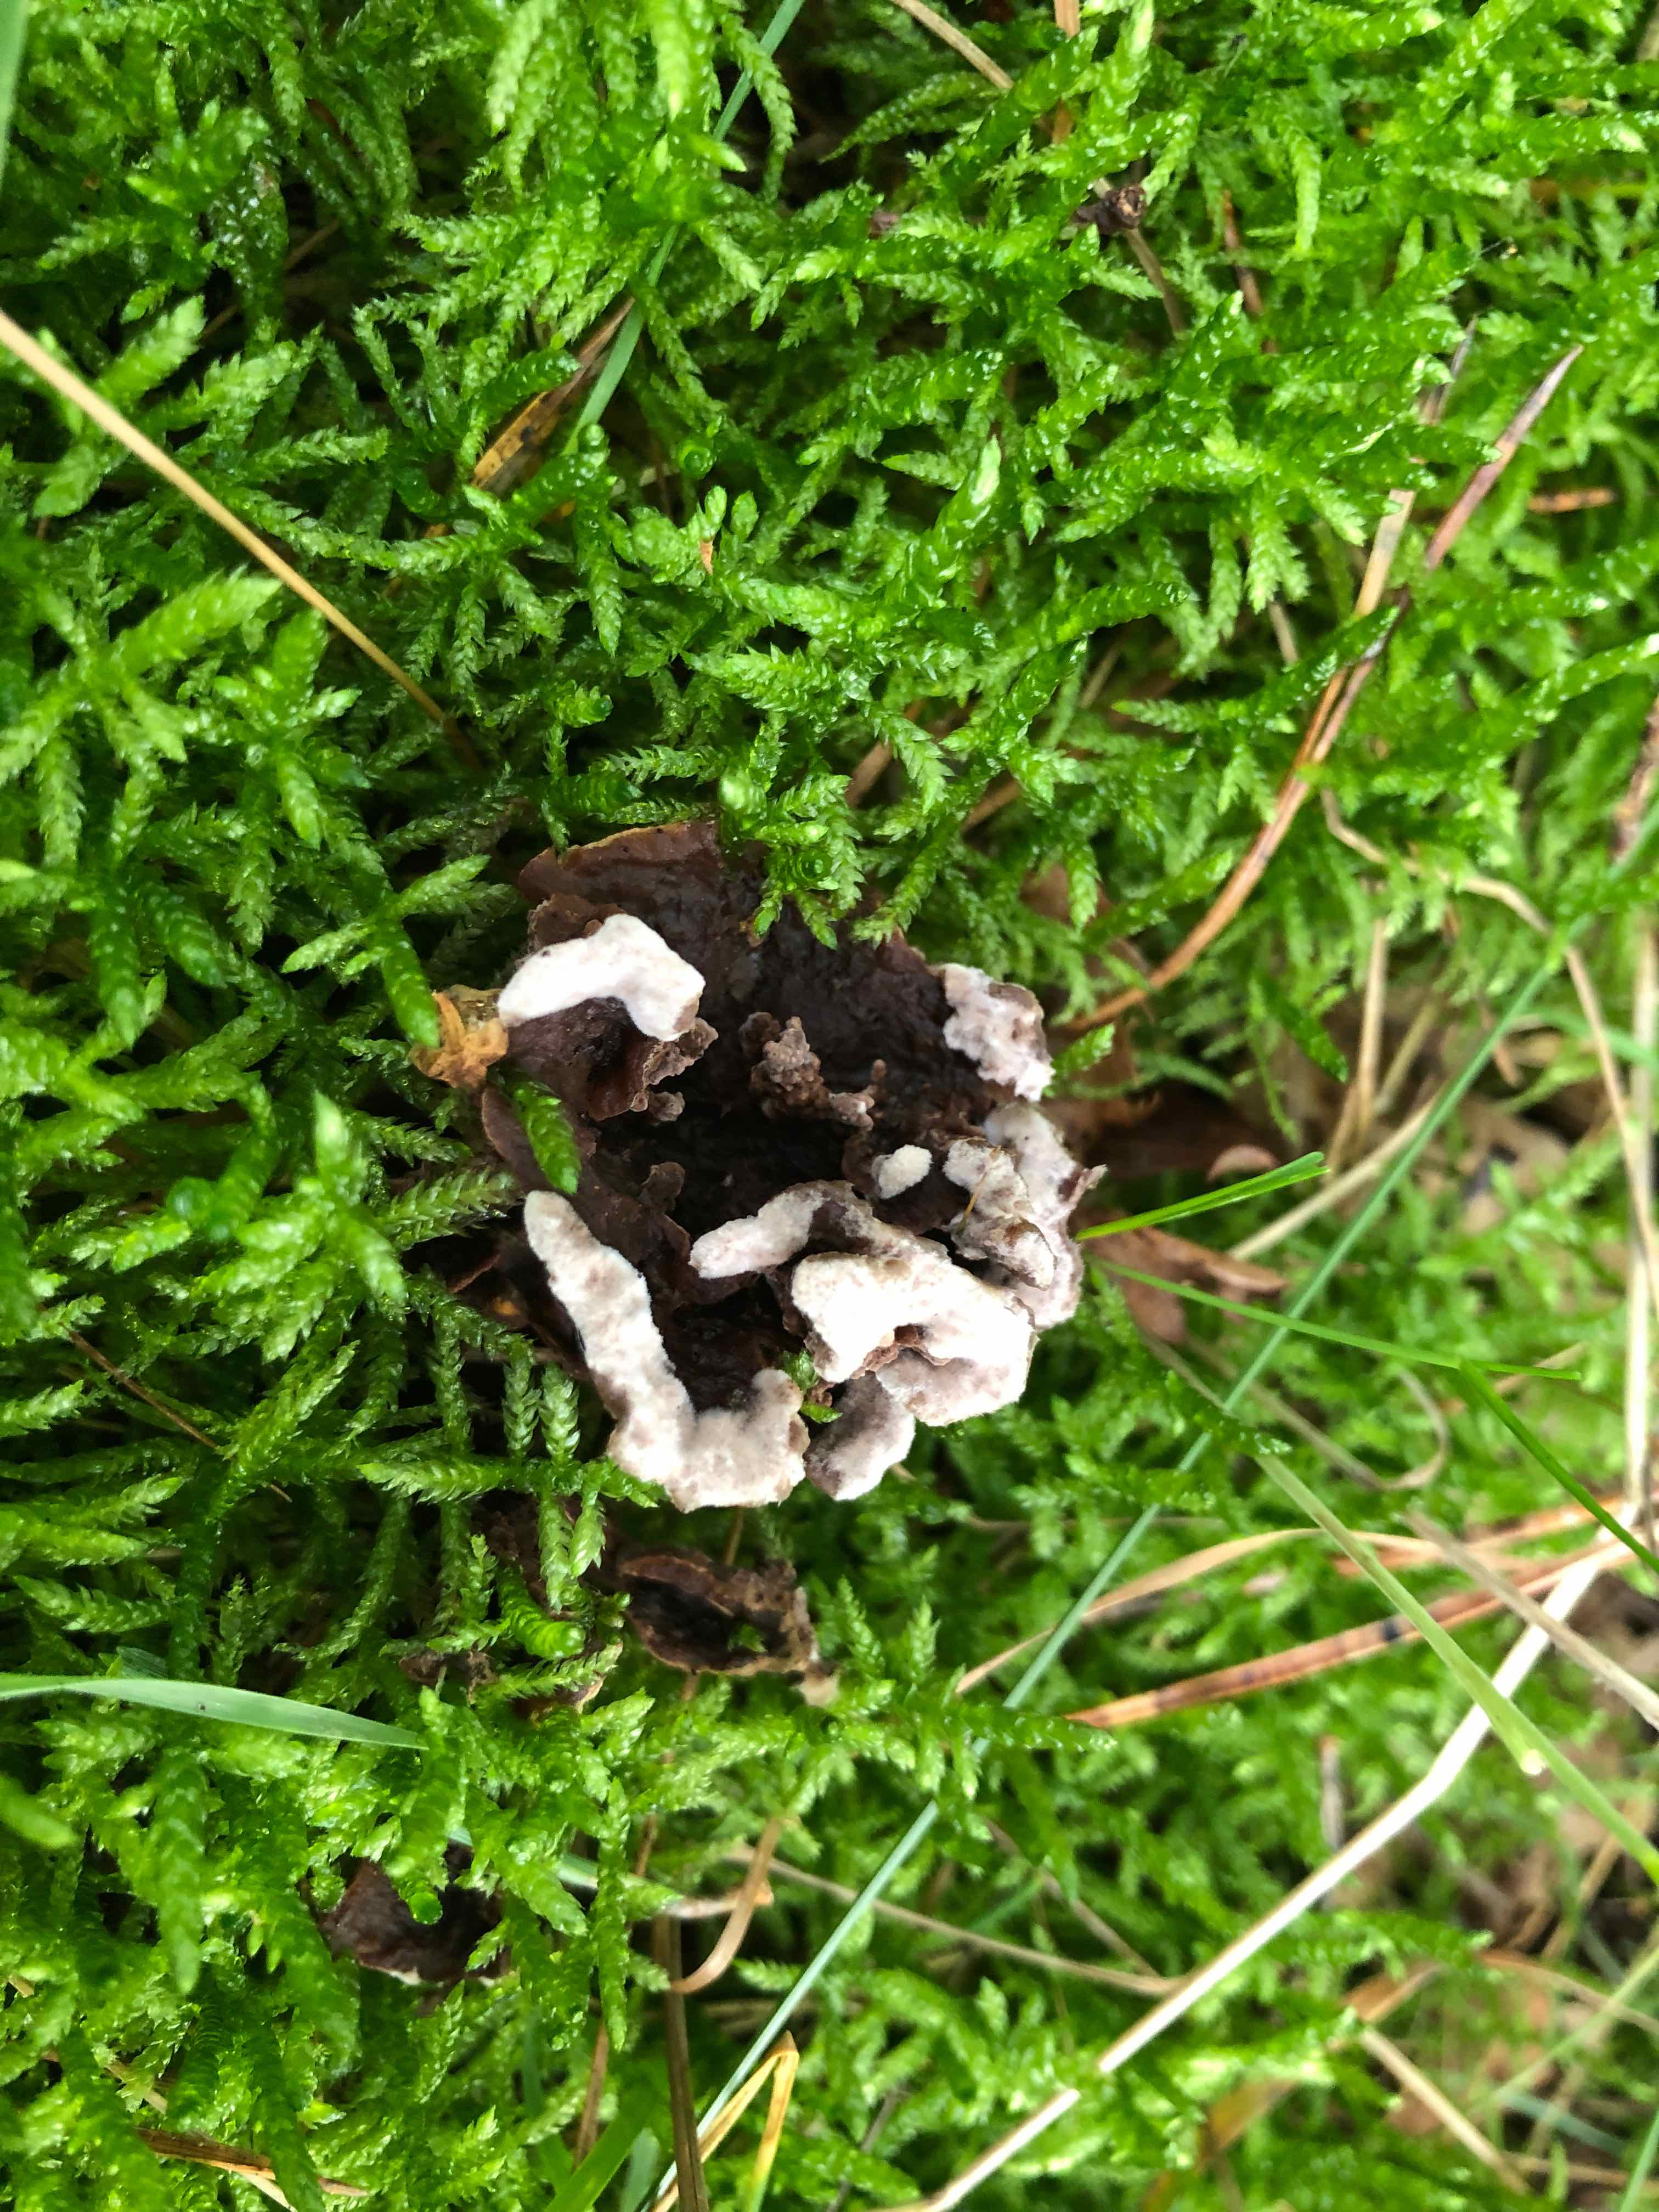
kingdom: Fungi
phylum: Basidiomycota
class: Agaricomycetes
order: Thelephorales
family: Thelephoraceae
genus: Thelephora
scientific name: Thelephora terrestris
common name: fliget frynsesvamp
